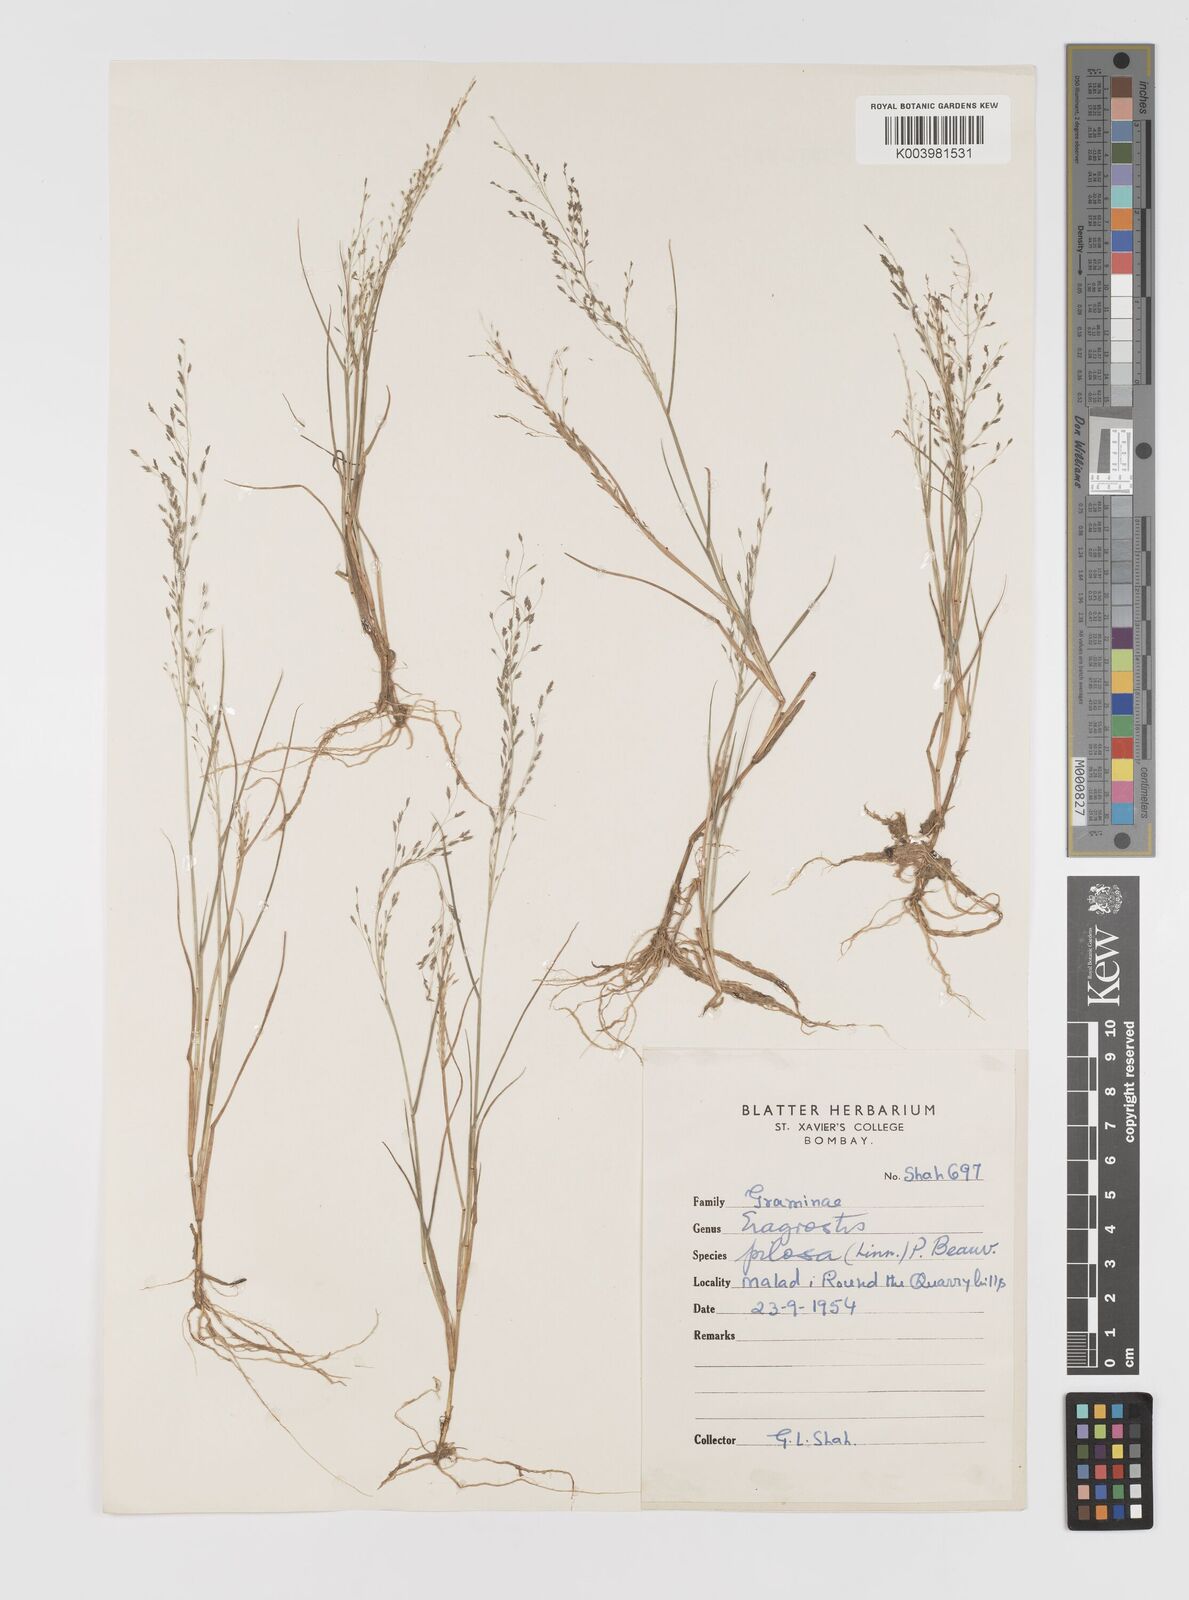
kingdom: Plantae
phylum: Tracheophyta
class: Liliopsida
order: Poales
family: Poaceae
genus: Eragrostis
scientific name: Eragrostis pilosa
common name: Indian lovegrass
